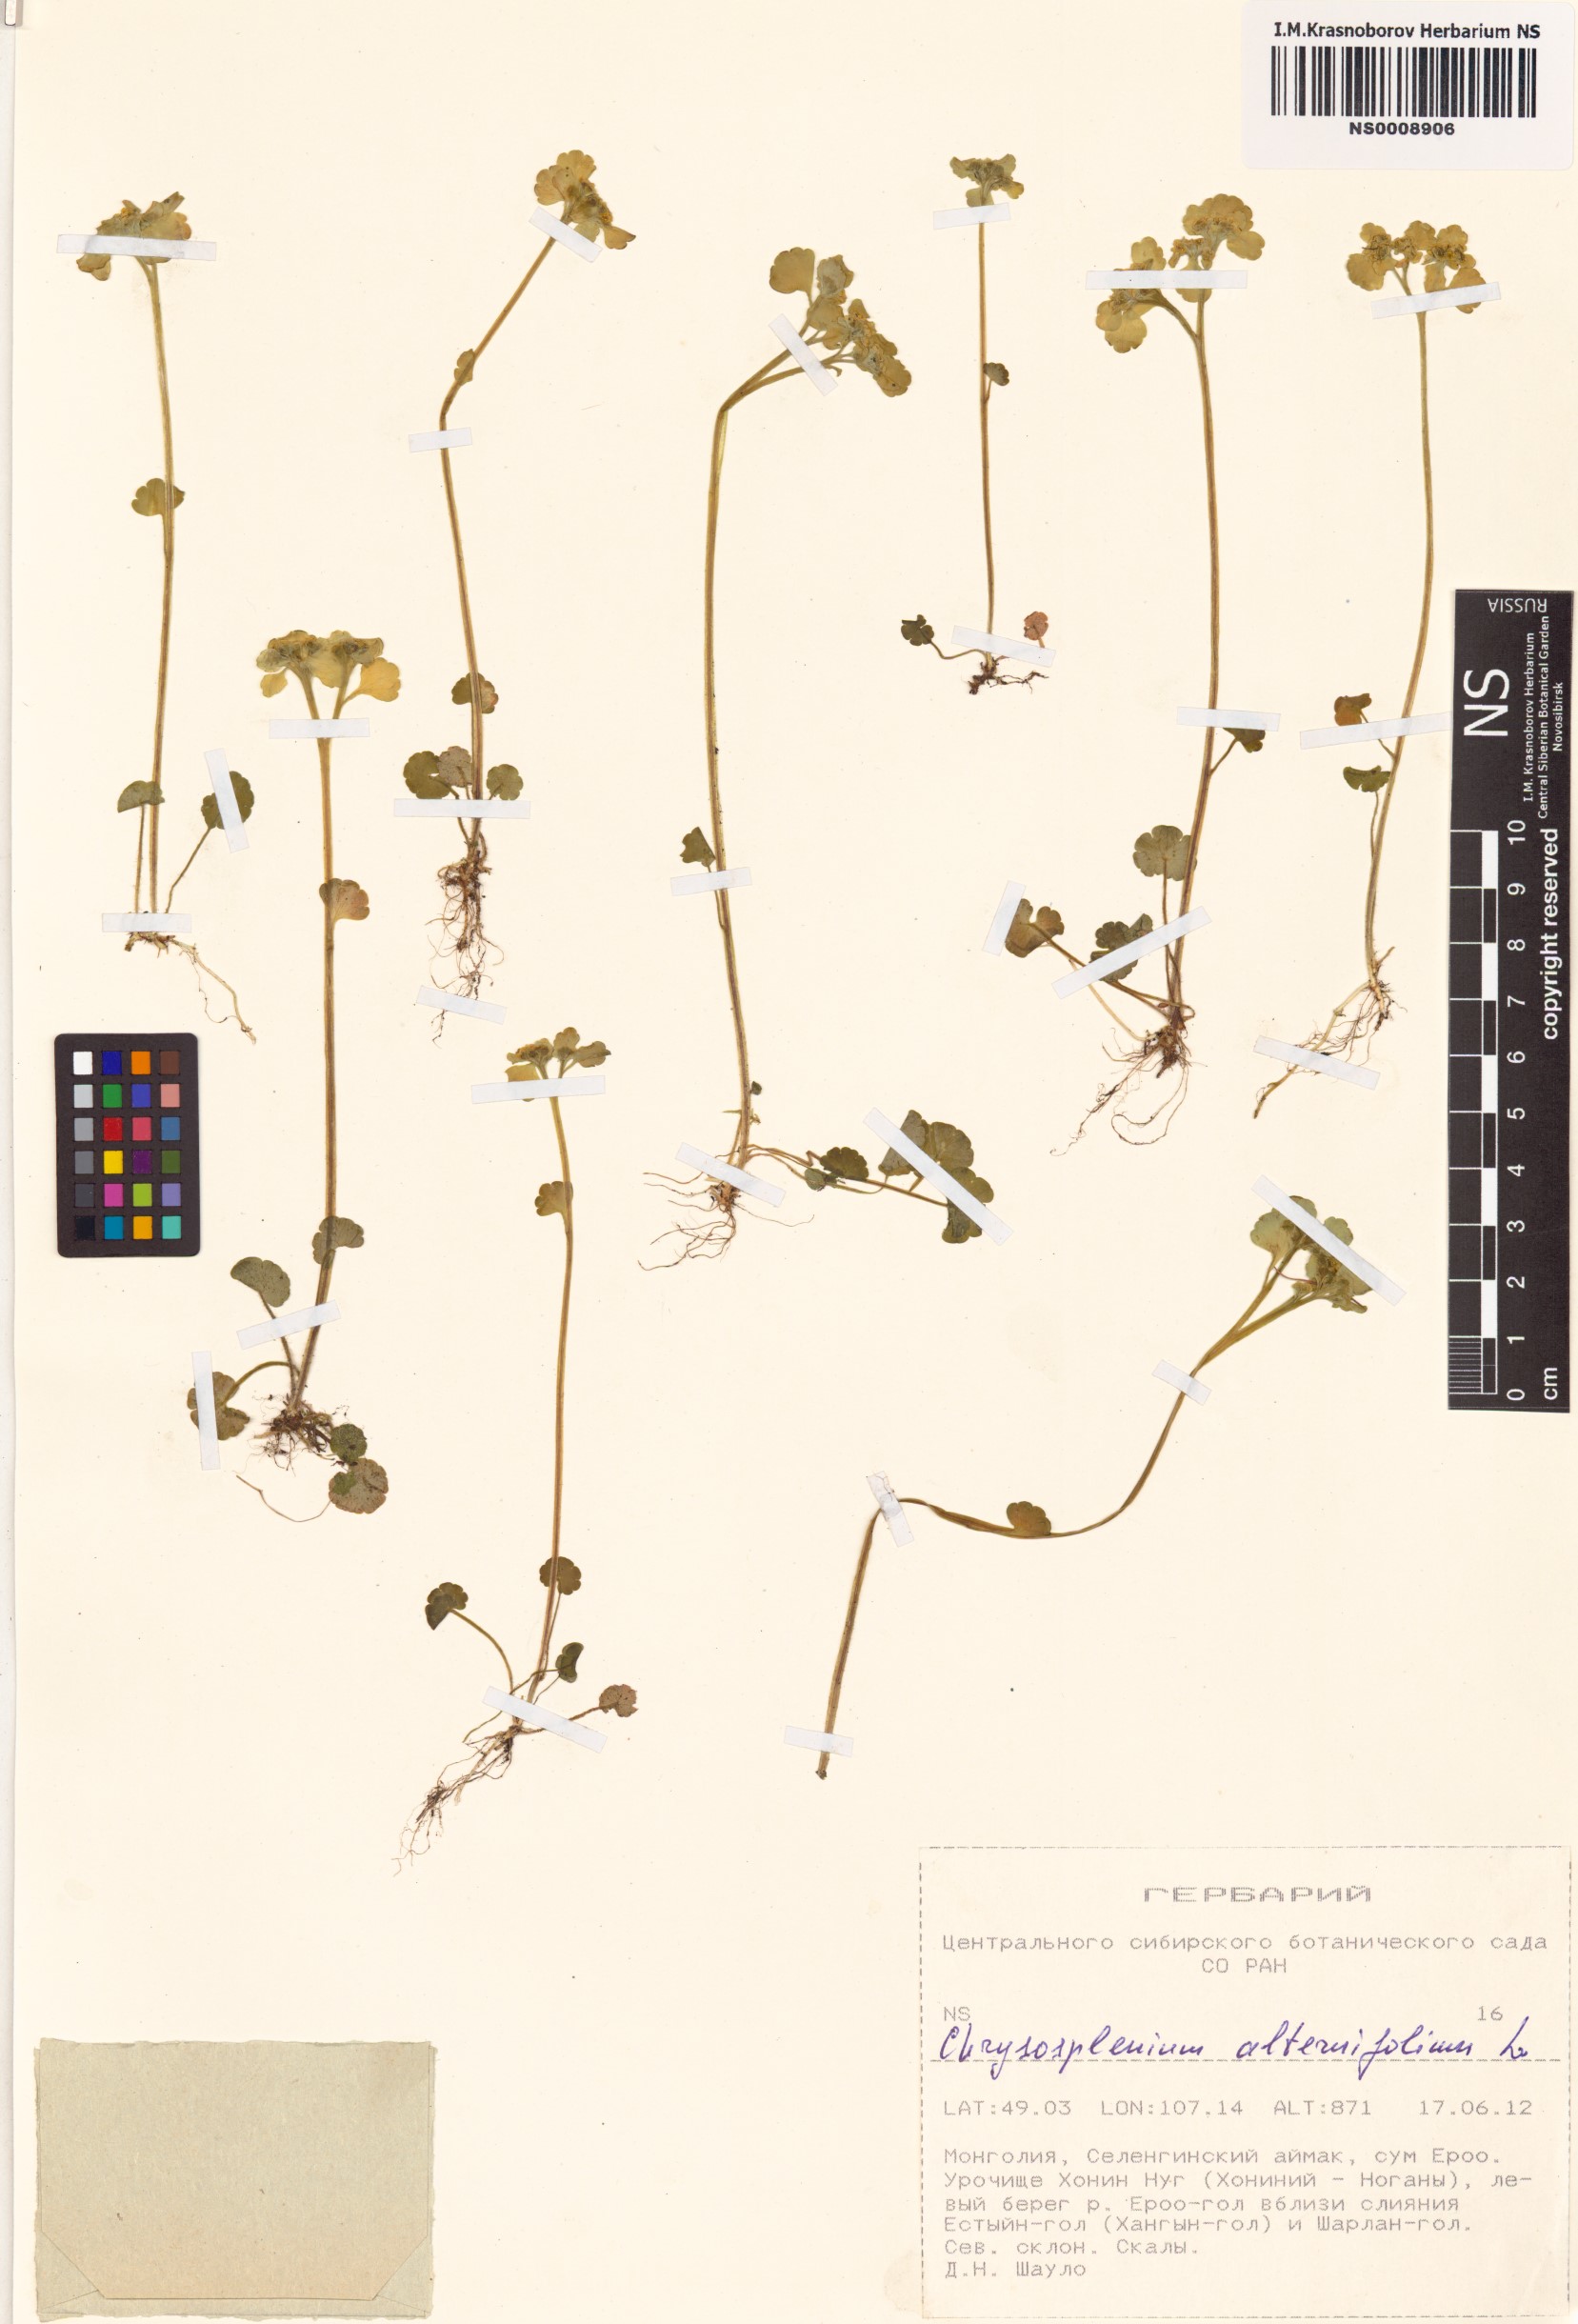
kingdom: Plantae
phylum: Tracheophyta
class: Magnoliopsida
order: Saxifragales
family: Saxifragaceae
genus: Chrysosplenium
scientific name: Chrysosplenium alternifolium
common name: Alternate-leaved golden-saxifrage
